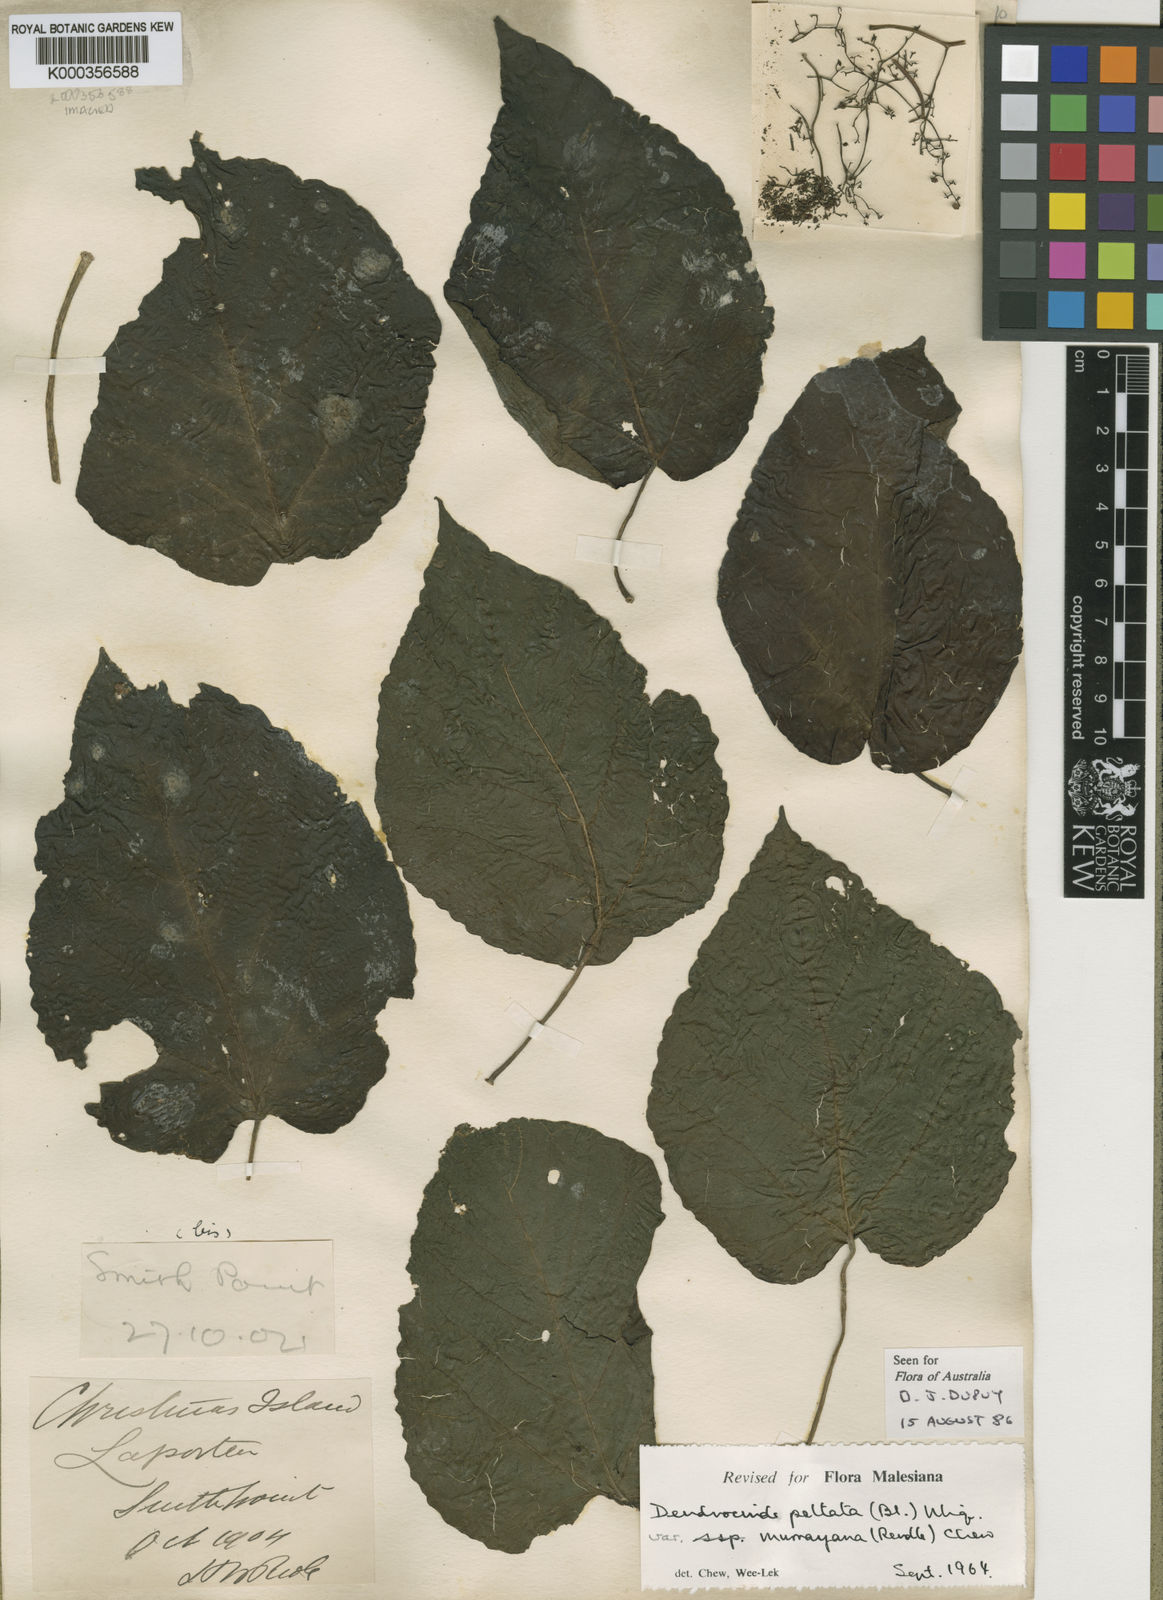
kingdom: Plantae
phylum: Tracheophyta
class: Magnoliopsida
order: Rosales
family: Urticaceae
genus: Dendrocnide
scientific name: Dendrocnide peltata
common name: Stinging tree
